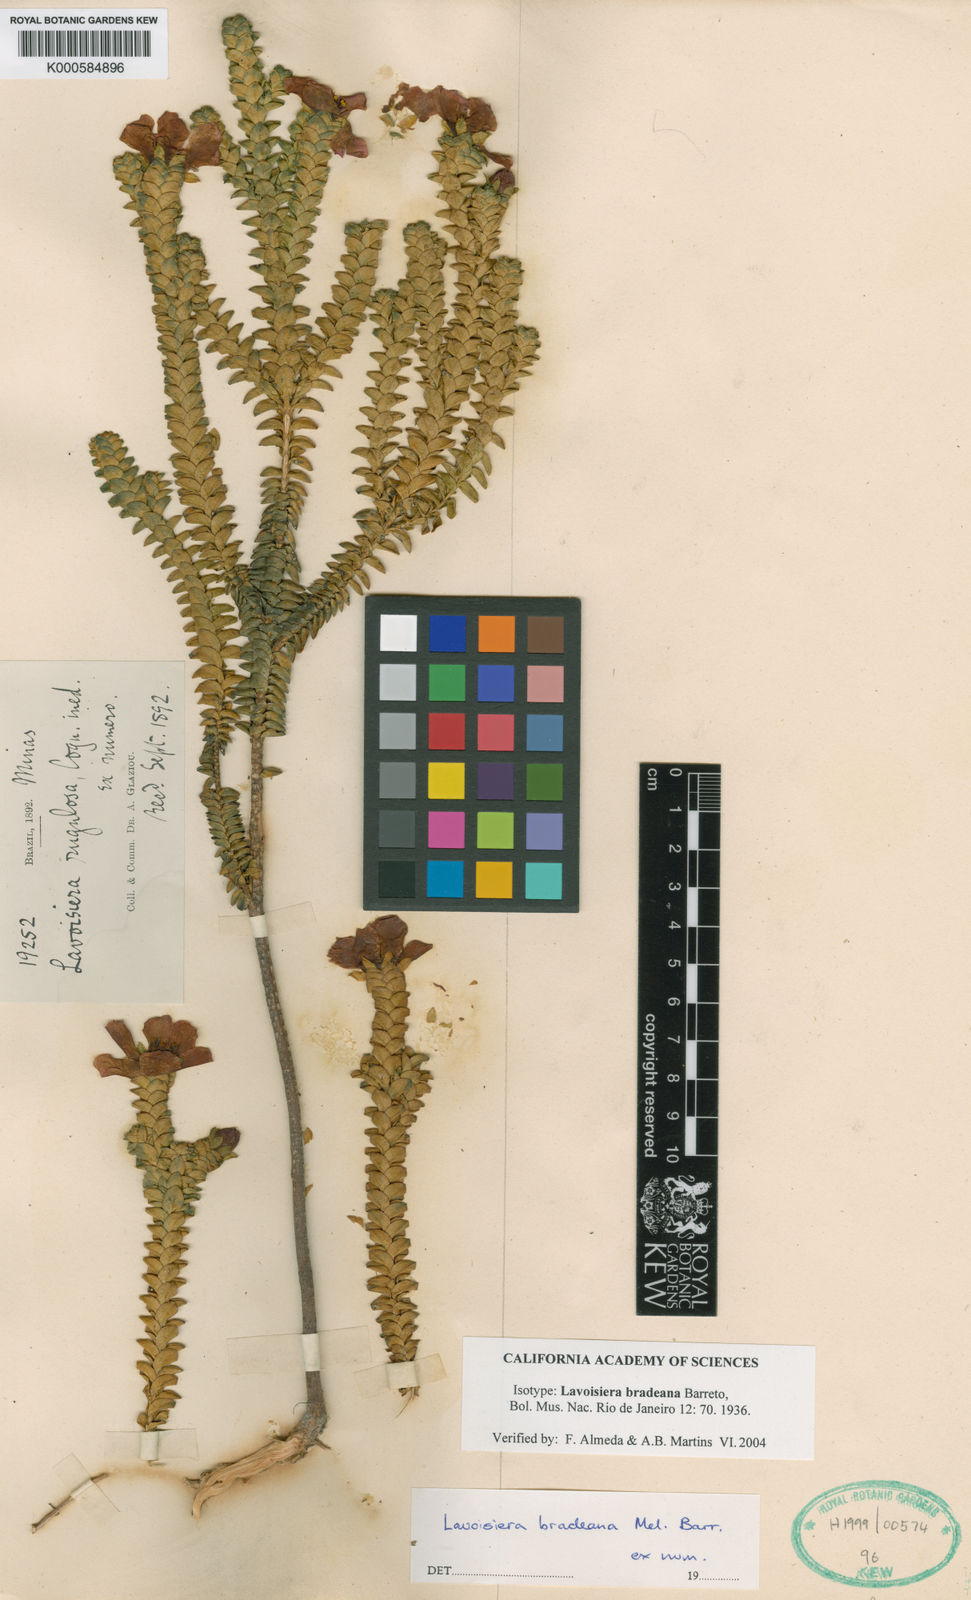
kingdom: Plantae
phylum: Tracheophyta
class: Magnoliopsida
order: Myrtales
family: Melastomataceae
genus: Microlicia
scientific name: Microlicia curtiana
